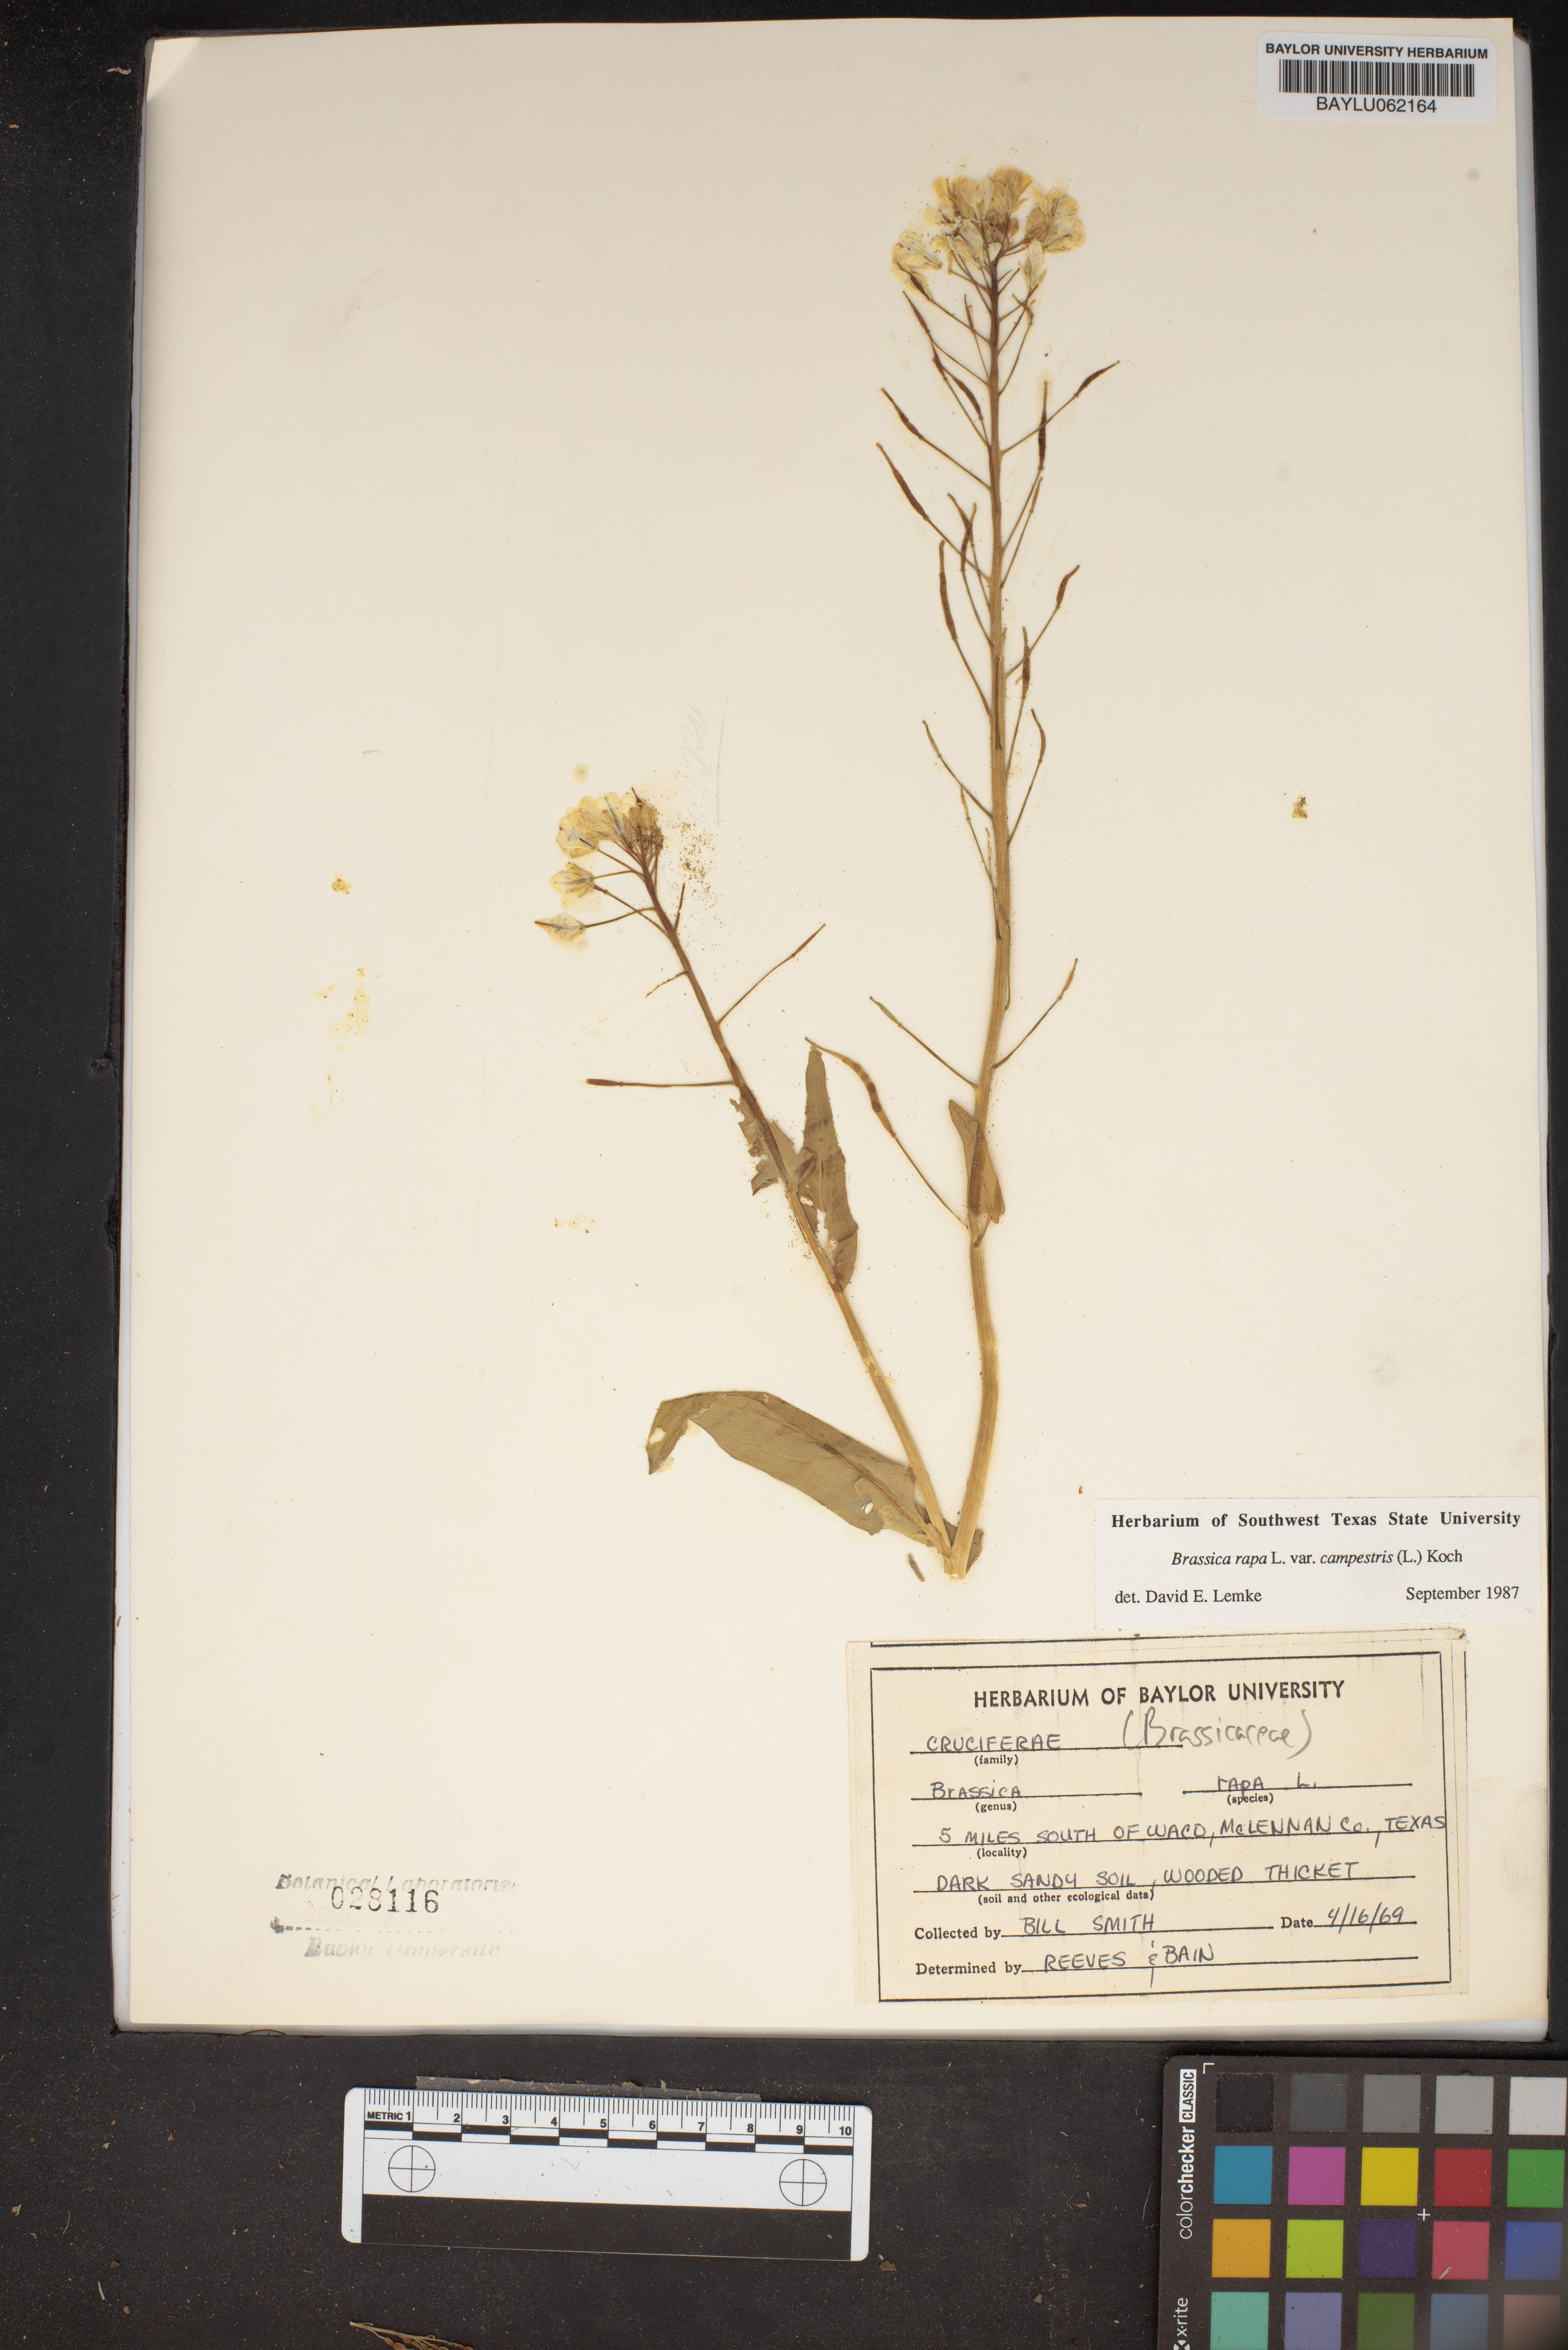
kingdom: Plantae
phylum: Tracheophyta
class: Magnoliopsida
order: Brassicales
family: Brassicaceae
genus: Brassica
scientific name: Brassica rapa
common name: Field mustard
